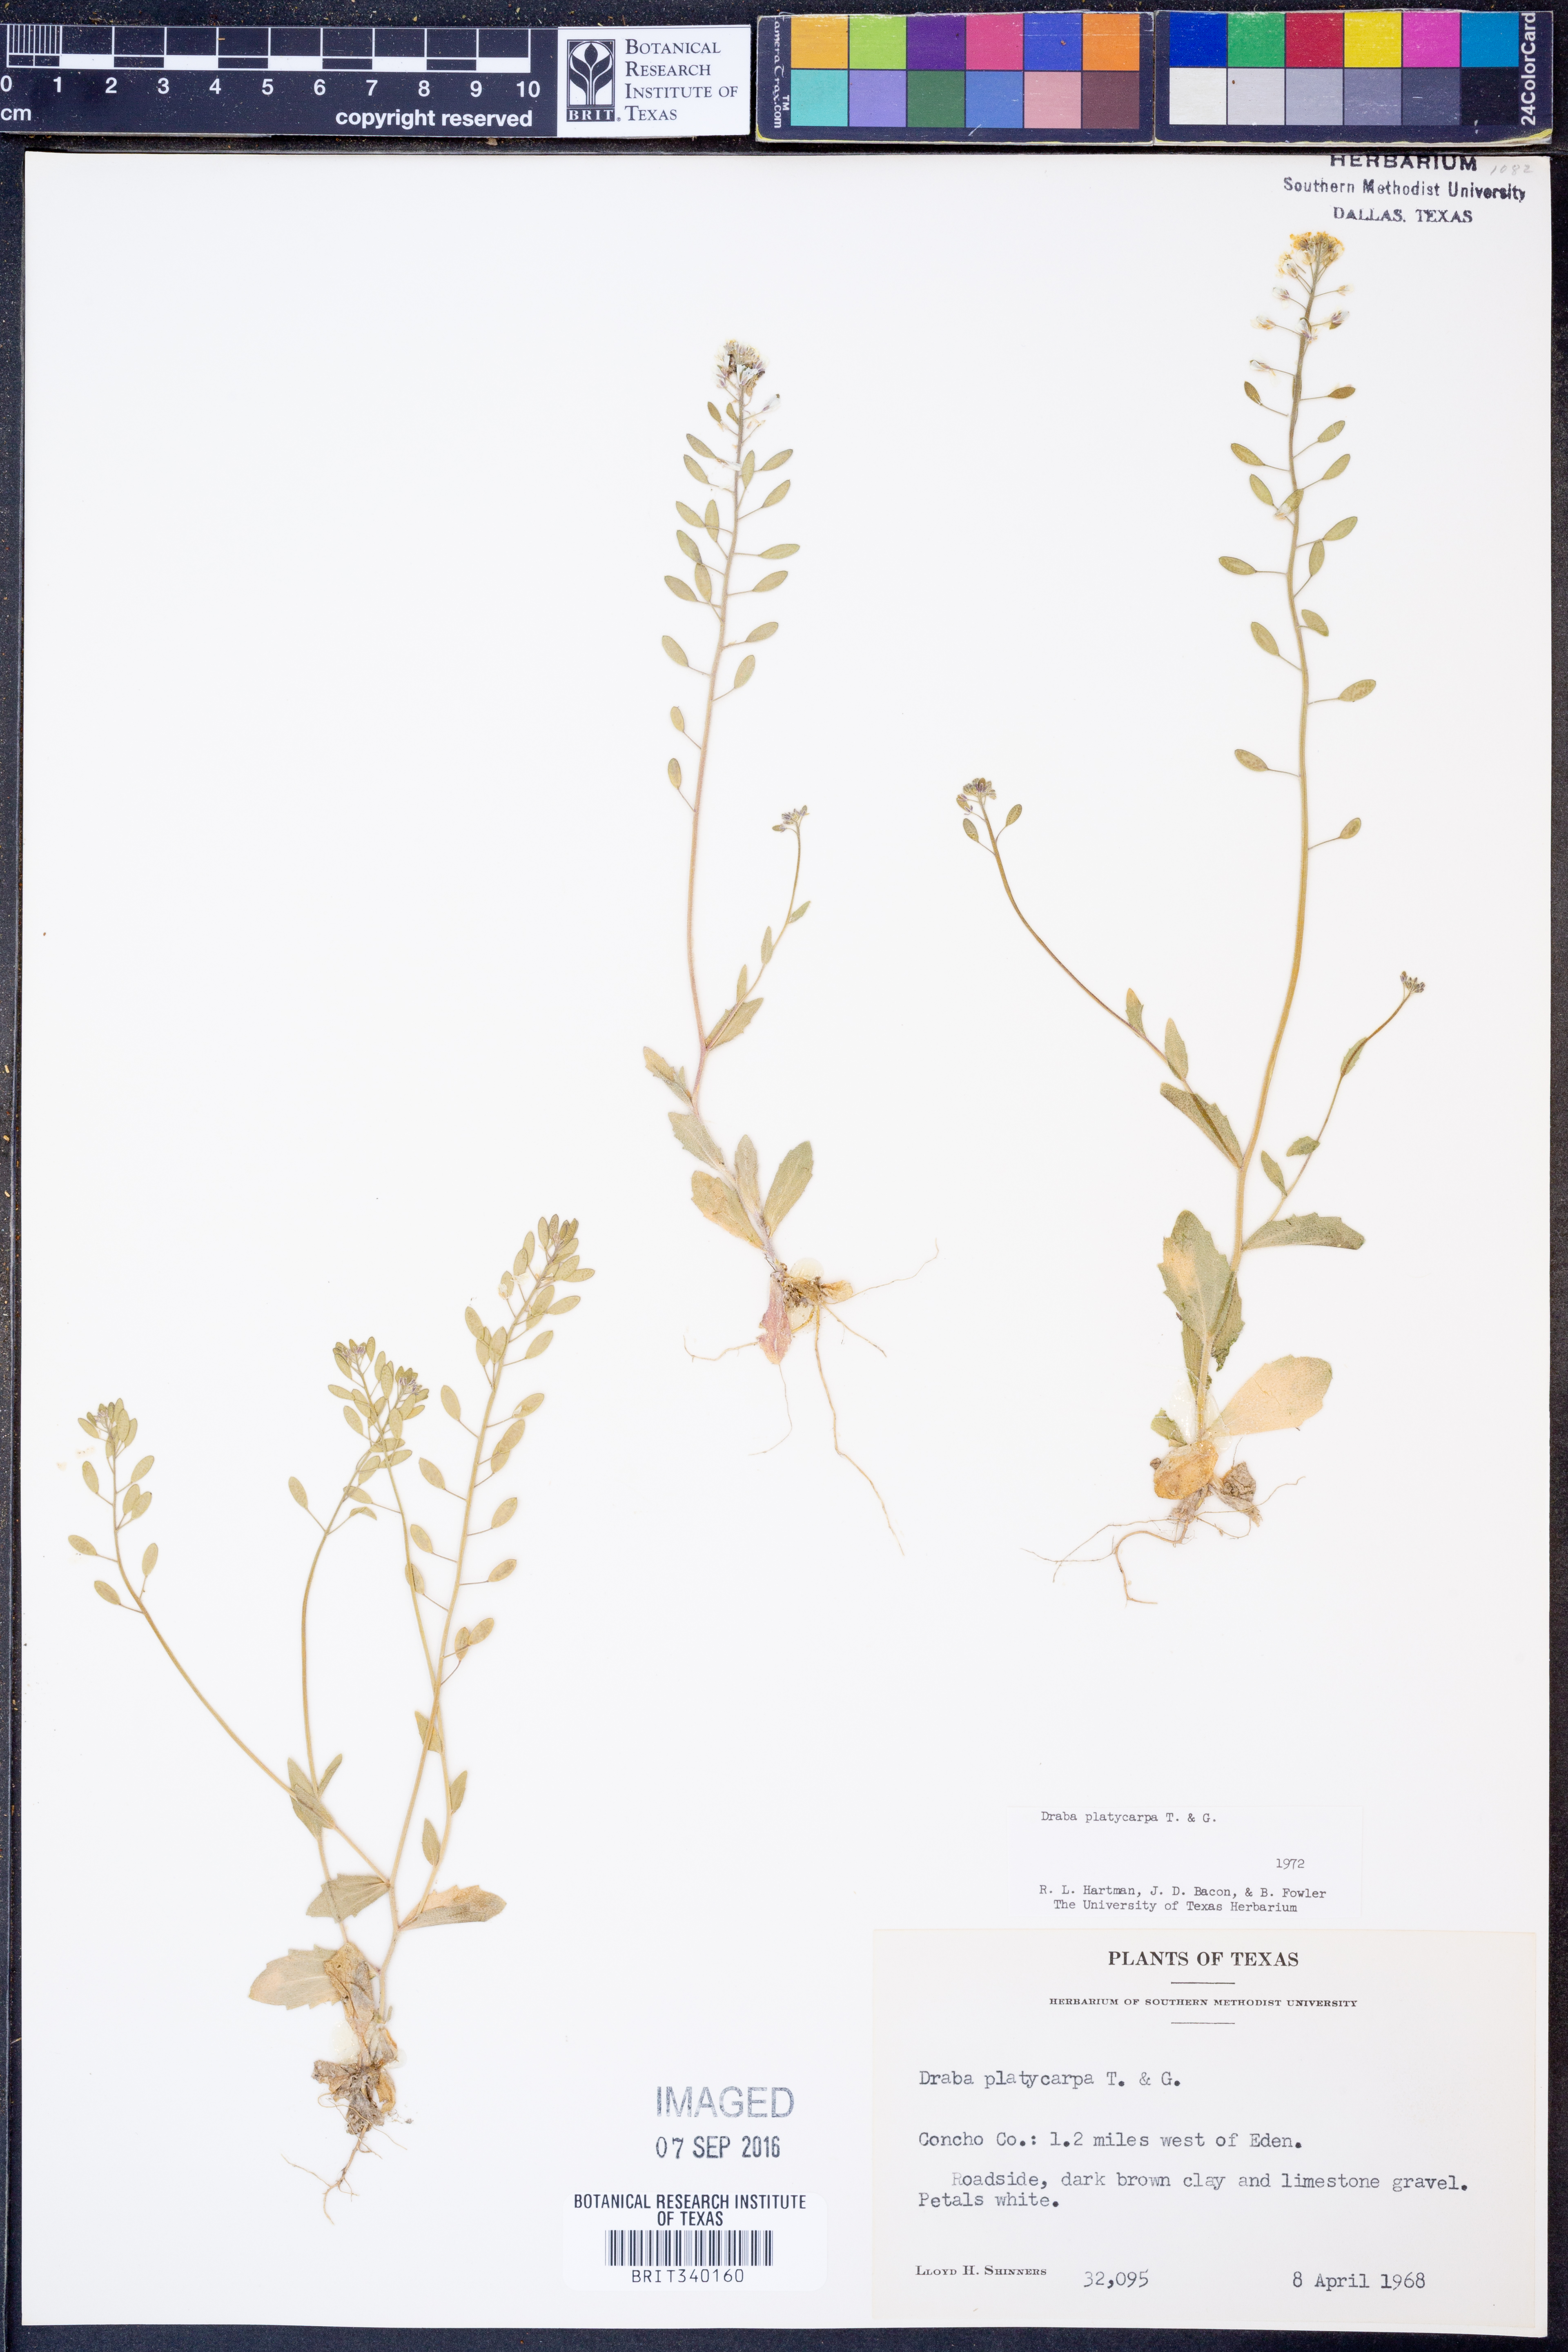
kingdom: Plantae
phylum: Tracheophyta
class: Magnoliopsida
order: Brassicales
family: Brassicaceae
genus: Tomostima
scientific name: Tomostima platycarpa
